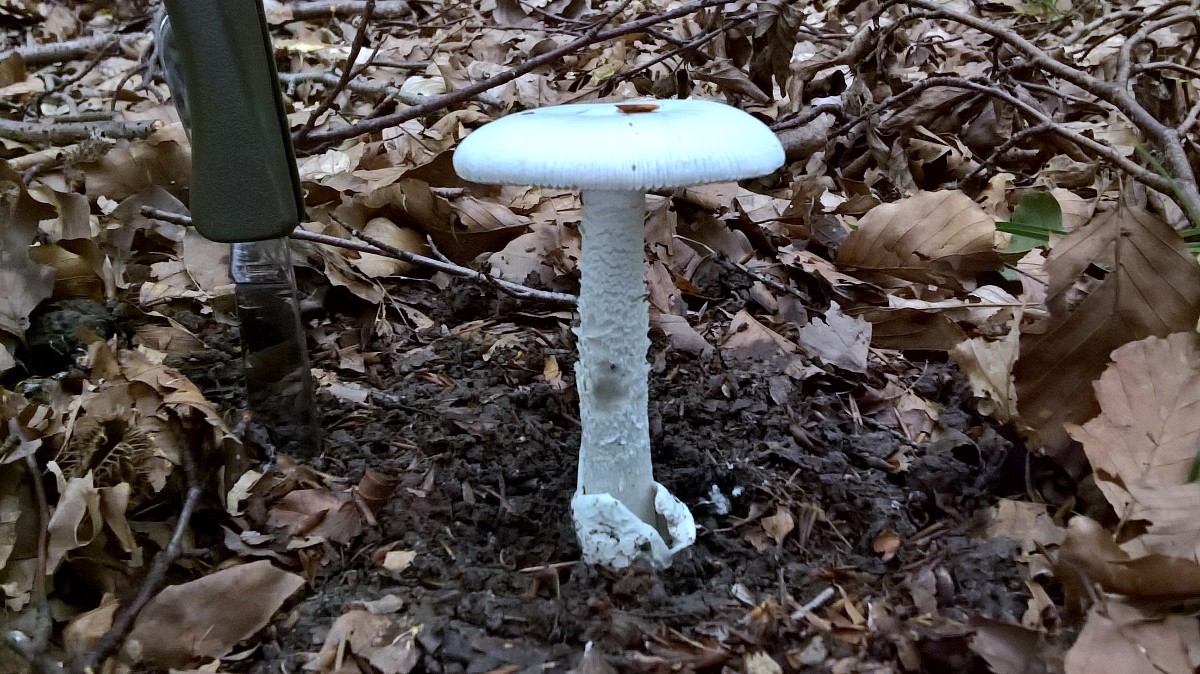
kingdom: Fungi
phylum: Basidiomycota
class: Agaricomycetes
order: Agaricales
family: Amanitaceae
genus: Amanita
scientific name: Amanita
